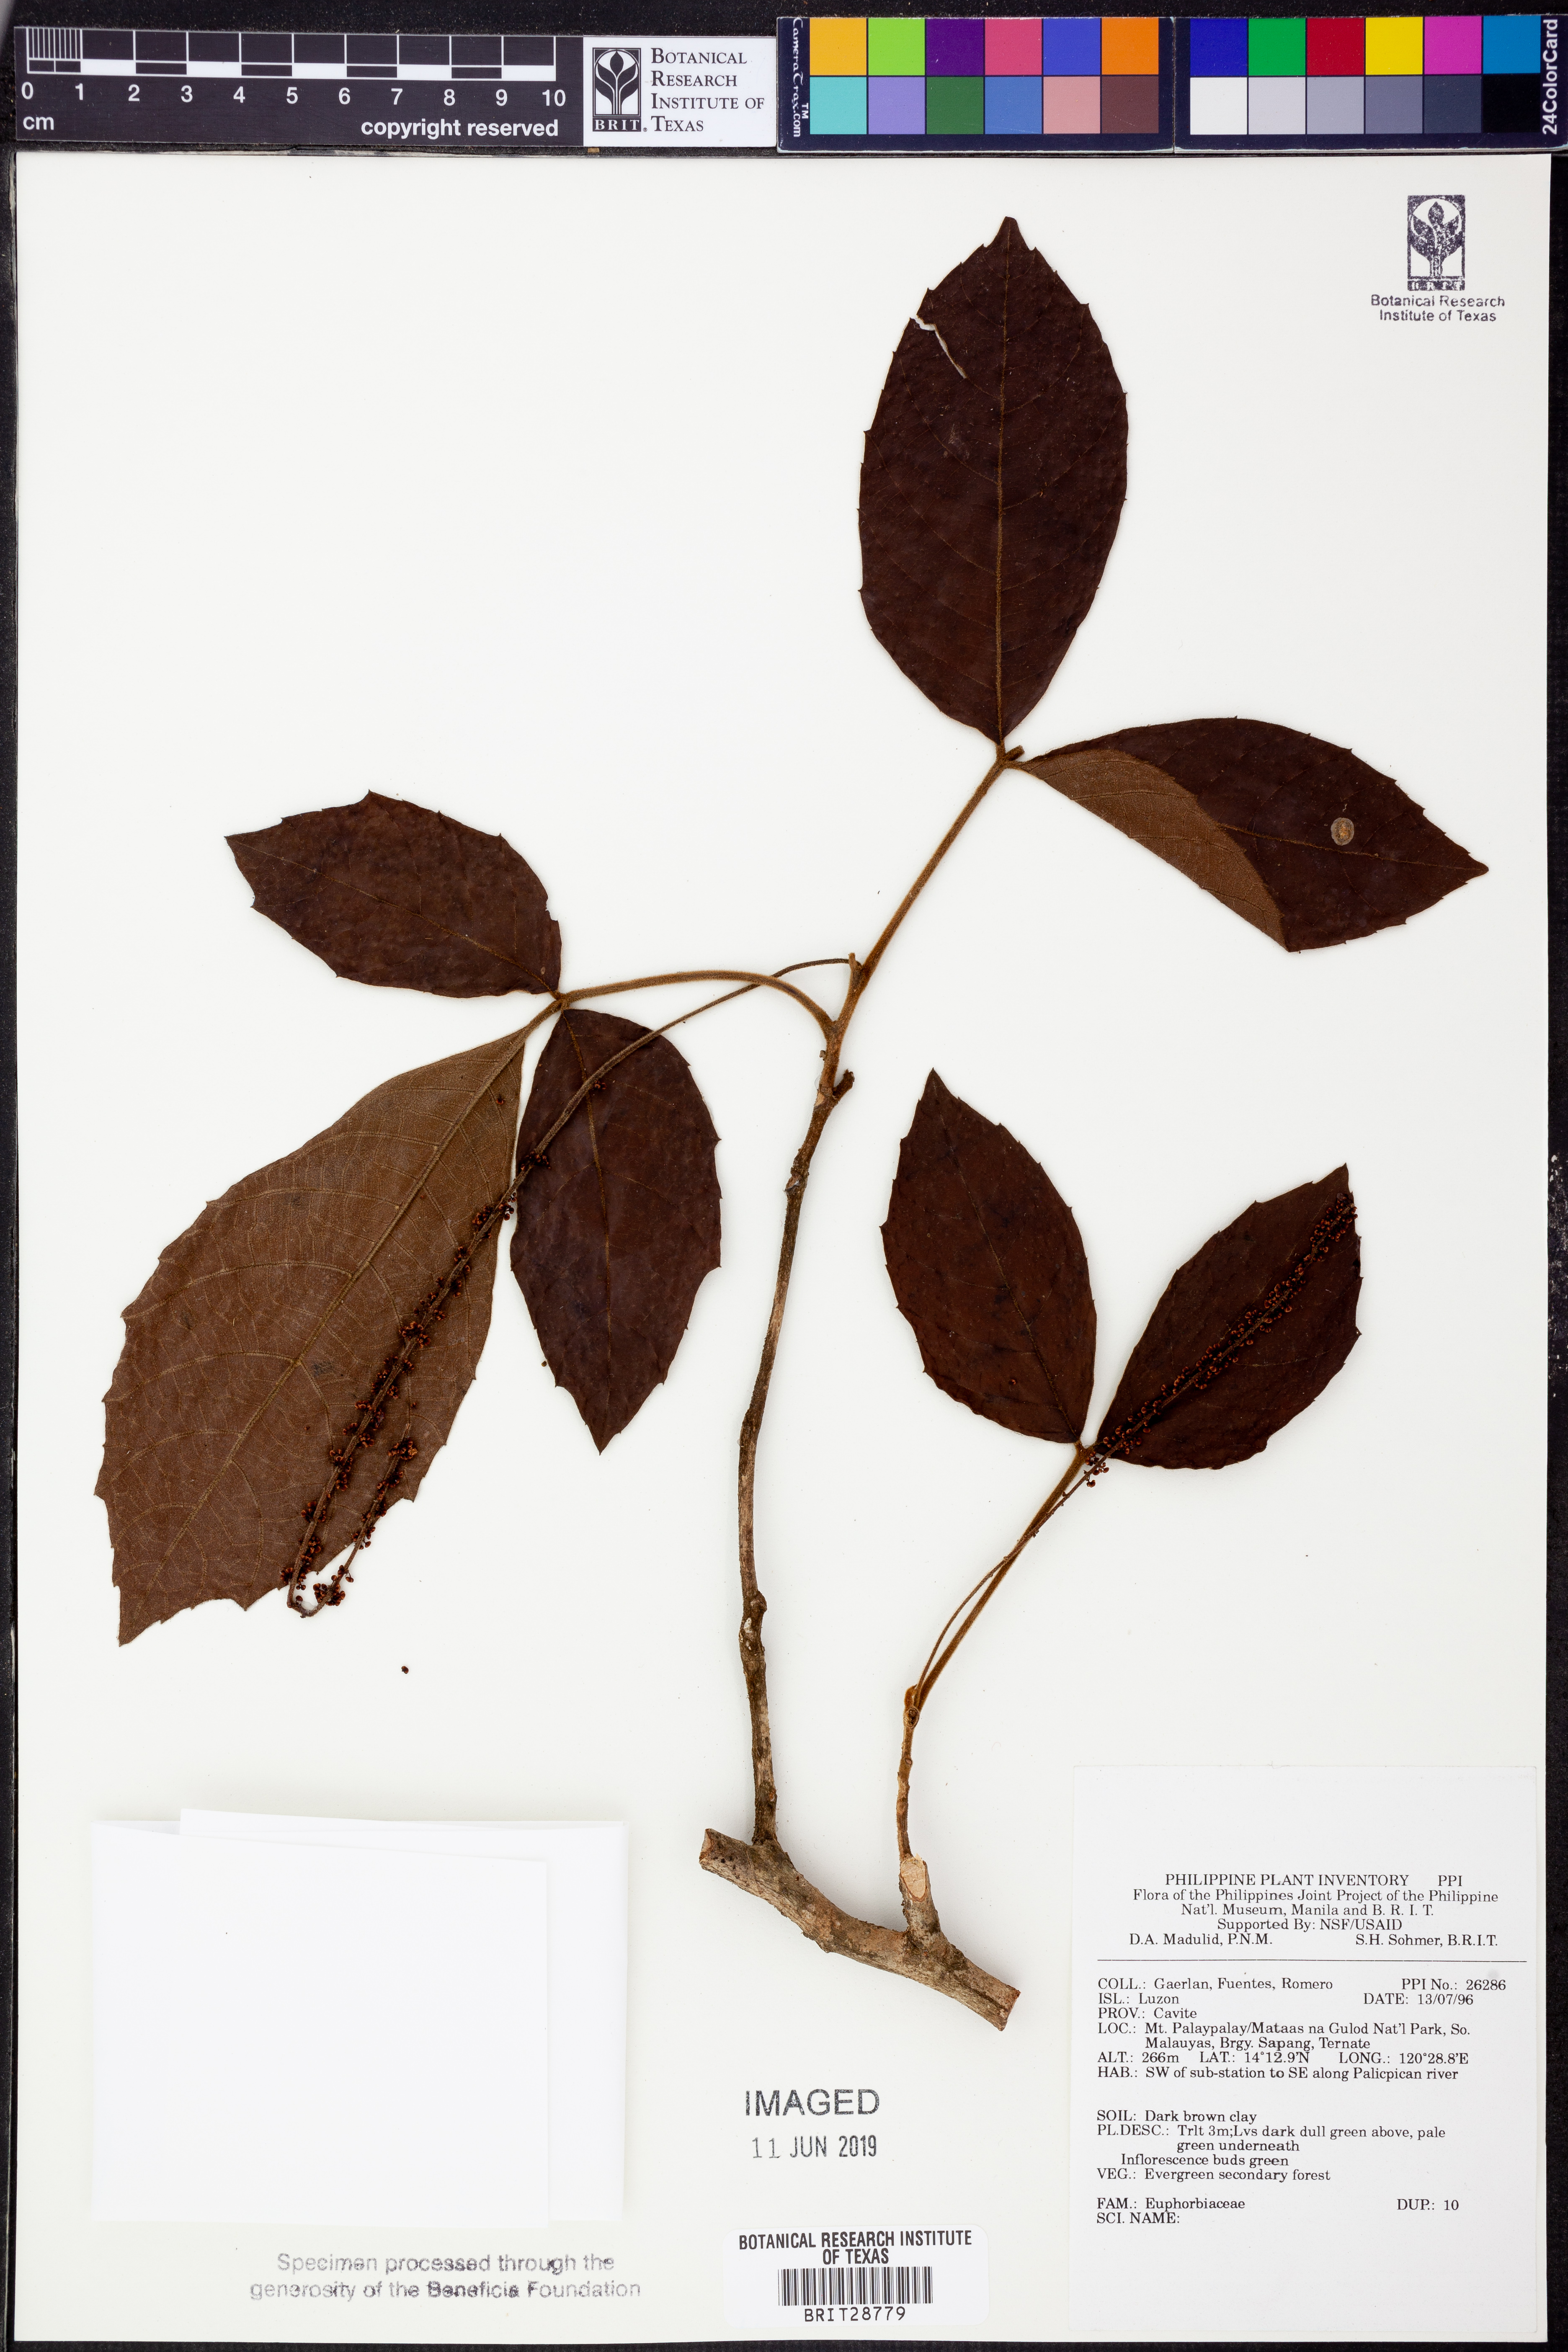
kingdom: Plantae
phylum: Tracheophyta
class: Magnoliopsida
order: Malpighiales
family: Euphorbiaceae
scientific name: Euphorbiaceae
